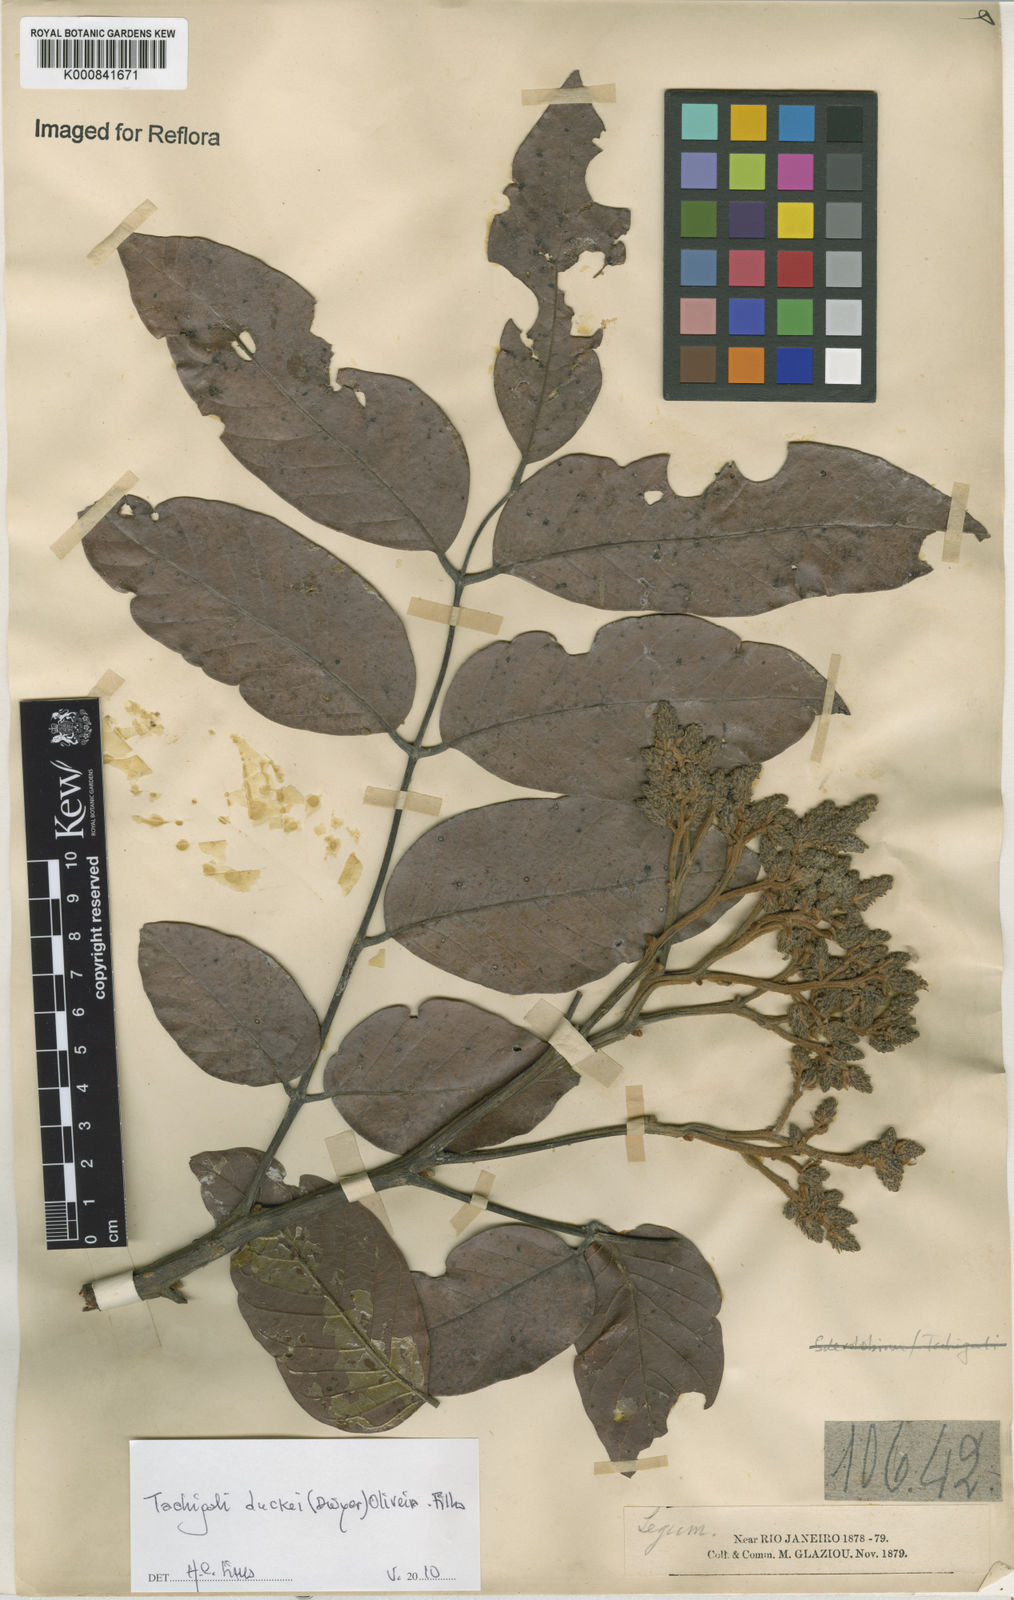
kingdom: Plantae
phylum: Tracheophyta
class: Magnoliopsida
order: Fabales
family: Fabaceae
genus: Tachigali
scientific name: Tachigali duckei
